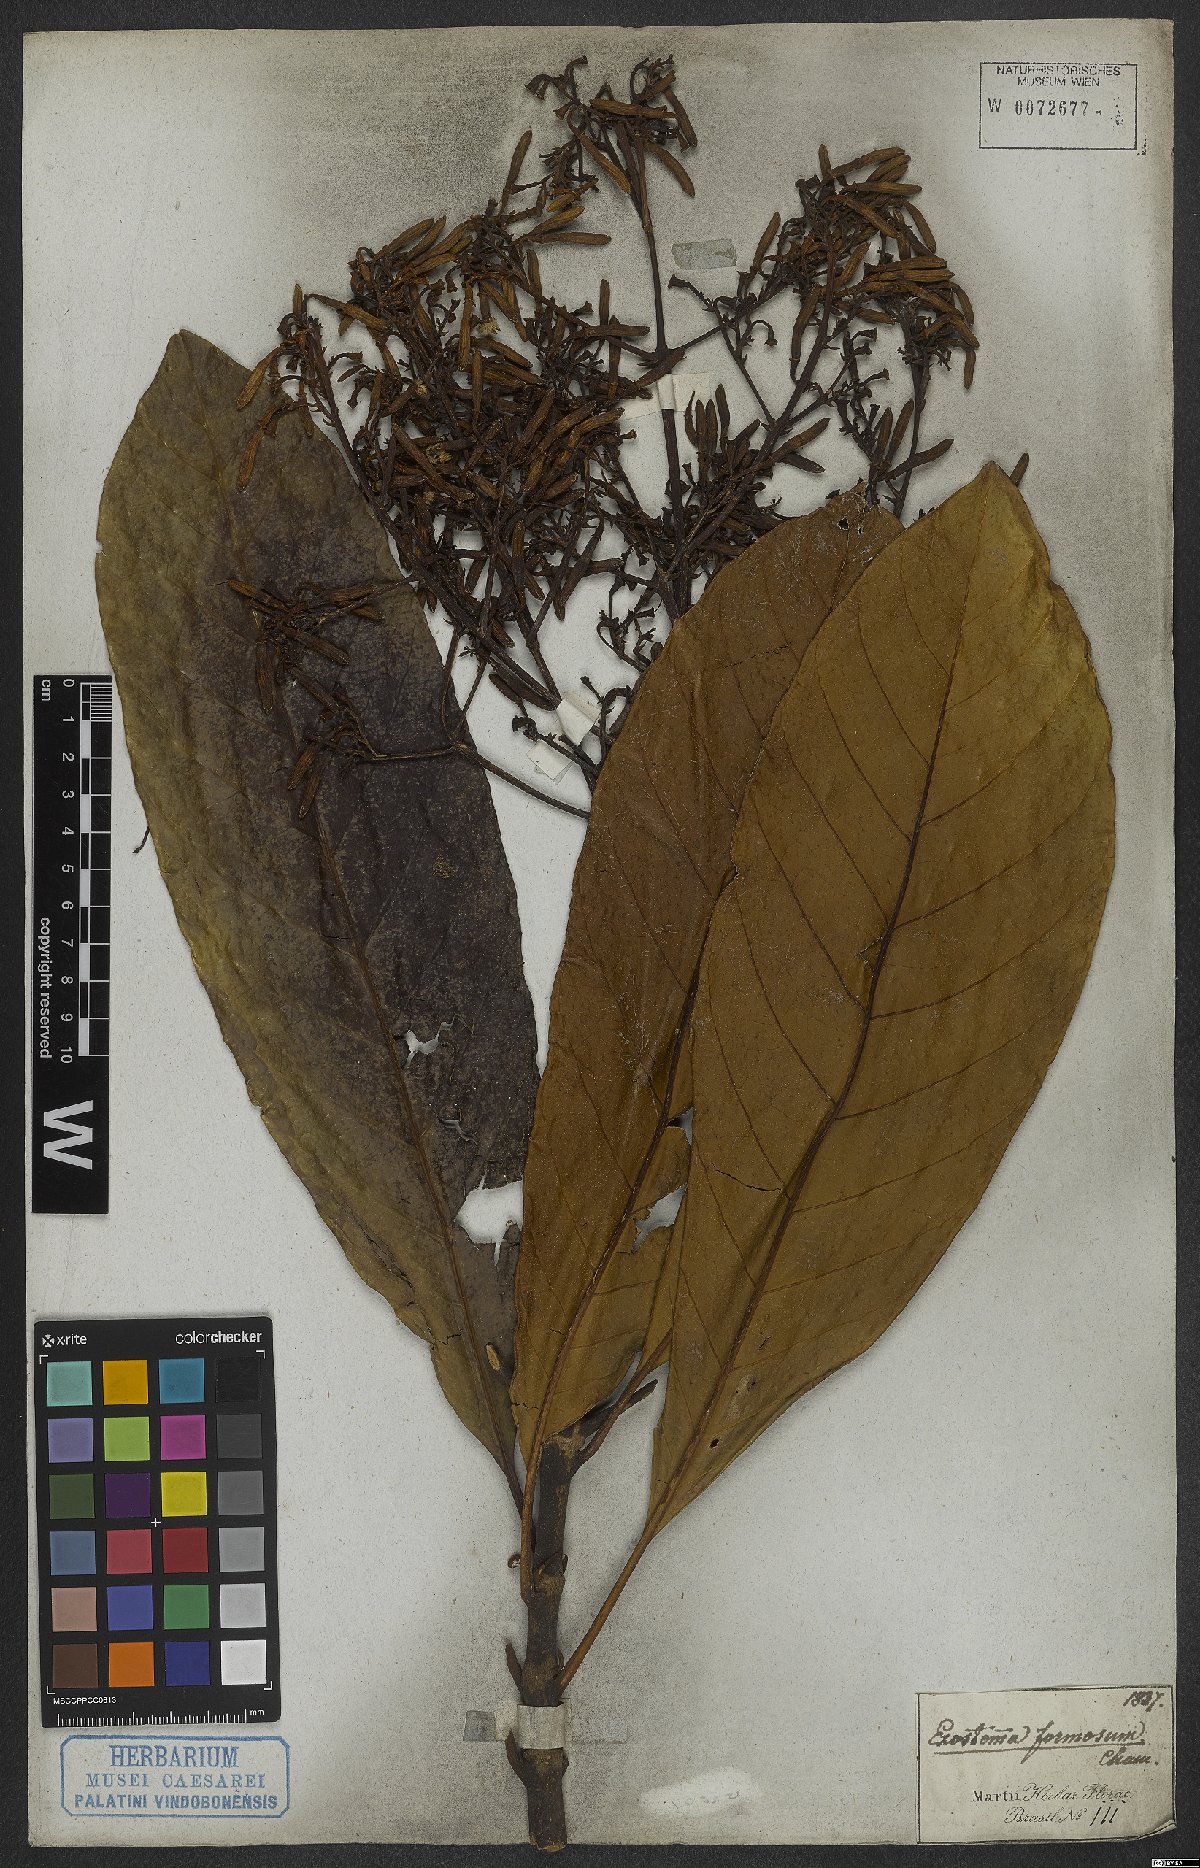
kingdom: Plantae
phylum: Tracheophyta
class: Magnoliopsida
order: Gentianales
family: Rubiaceae
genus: Rustia
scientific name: Rustia formosa
